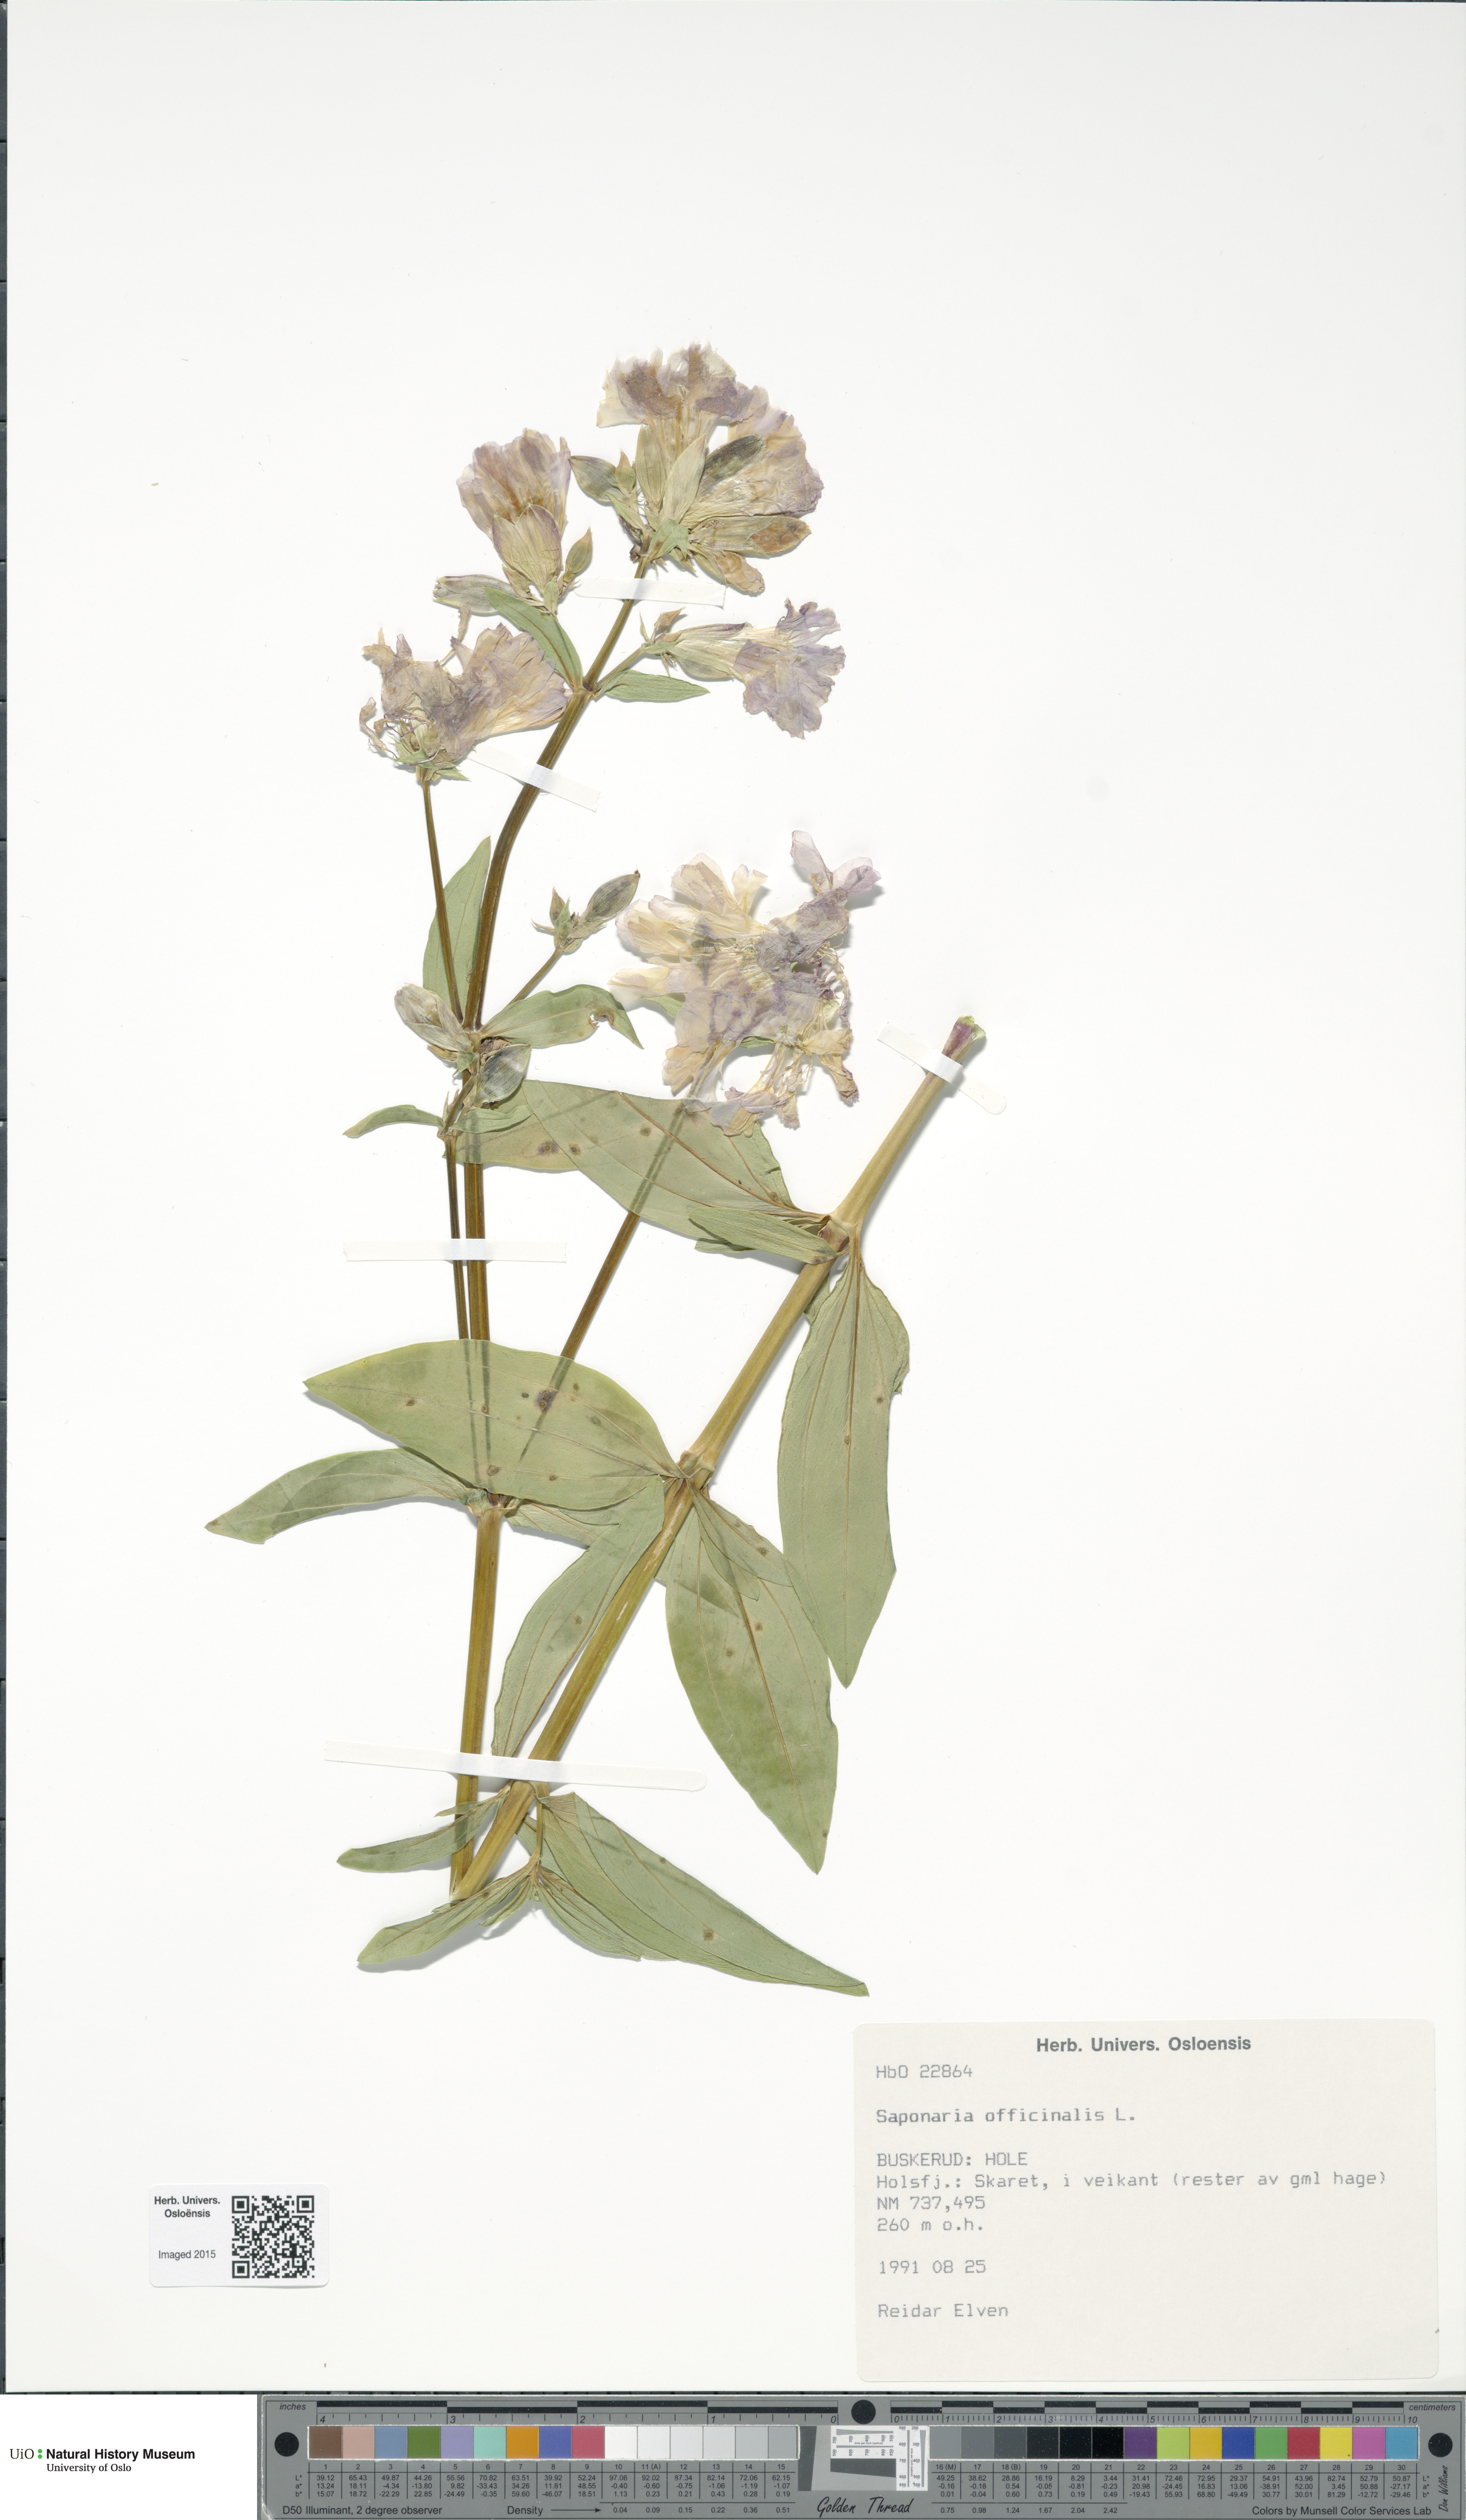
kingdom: Plantae
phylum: Tracheophyta
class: Magnoliopsida
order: Caryophyllales
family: Caryophyllaceae
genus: Saponaria
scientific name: Saponaria officinalis
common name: Soapwort
